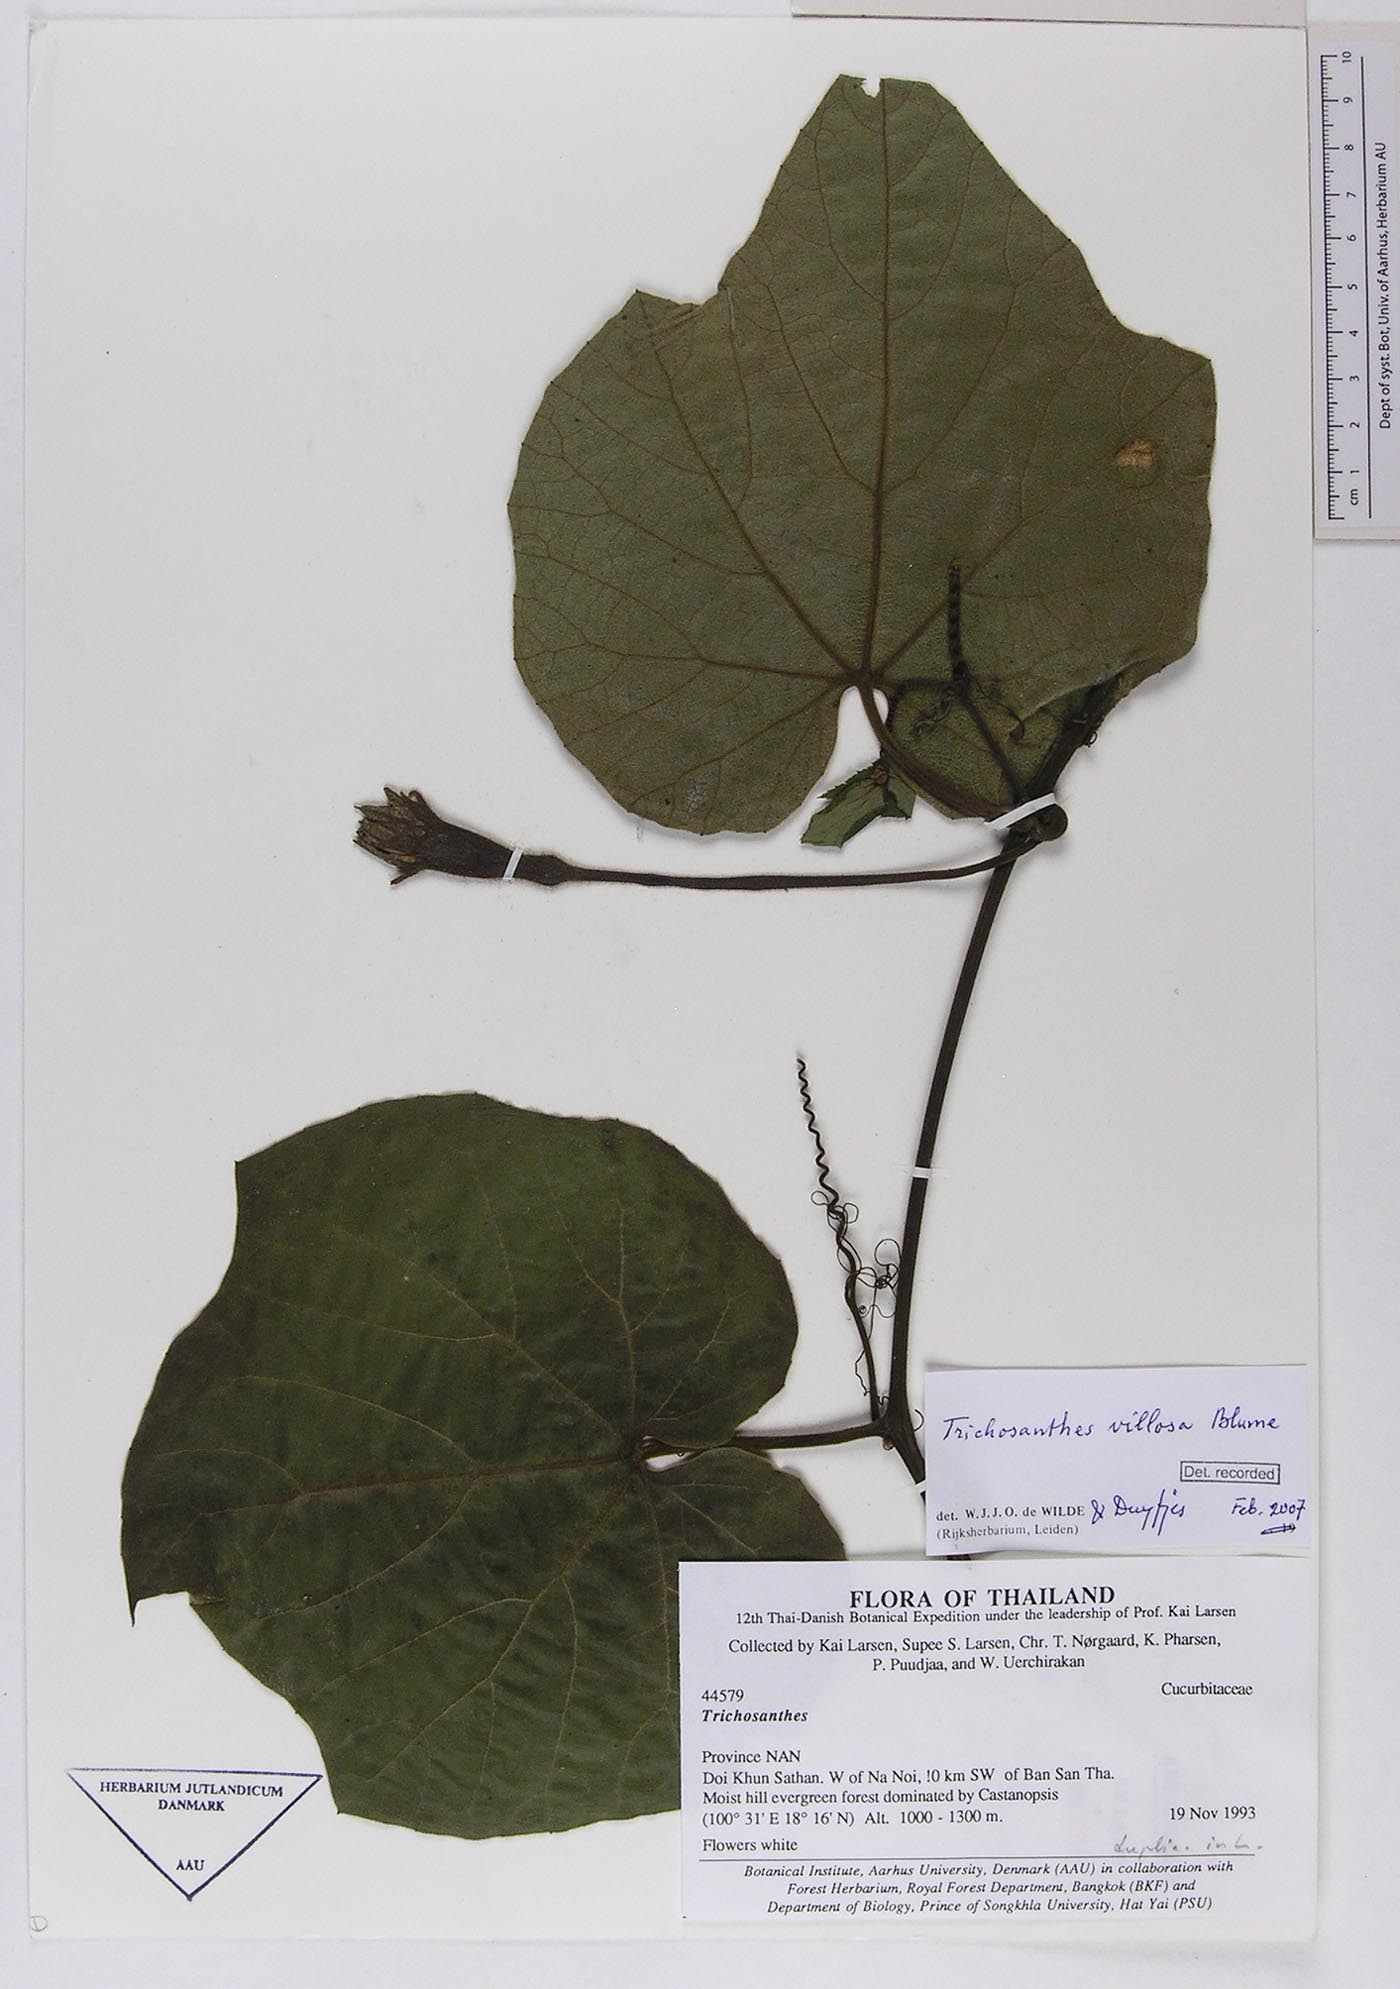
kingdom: Plantae
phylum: Tracheophyta
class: Magnoliopsida
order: Cucurbitales
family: Cucurbitaceae
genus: Trichosanthes
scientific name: Trichosanthes villosa
